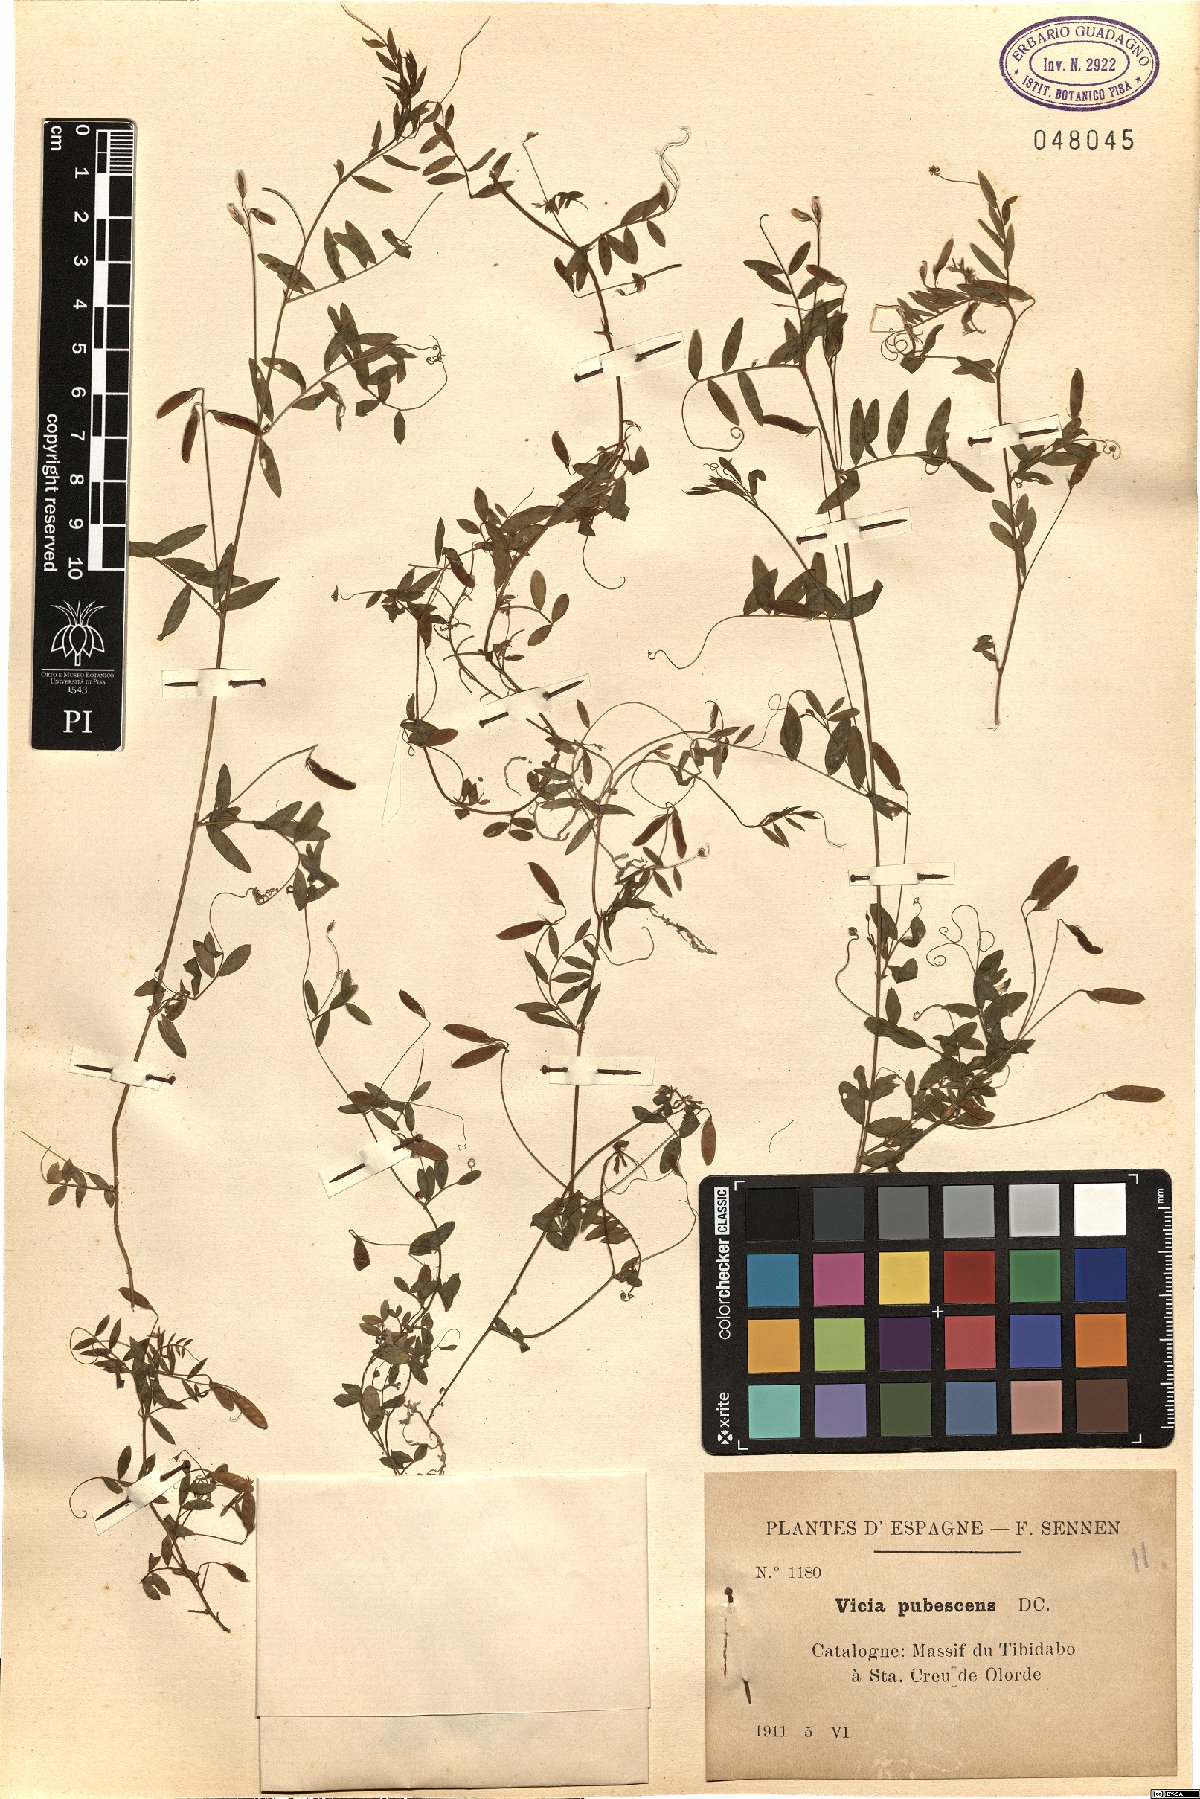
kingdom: Plantae
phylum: Tracheophyta
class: Magnoliopsida
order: Fabales
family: Fabaceae
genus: Vicia
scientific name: Vicia pubescens
